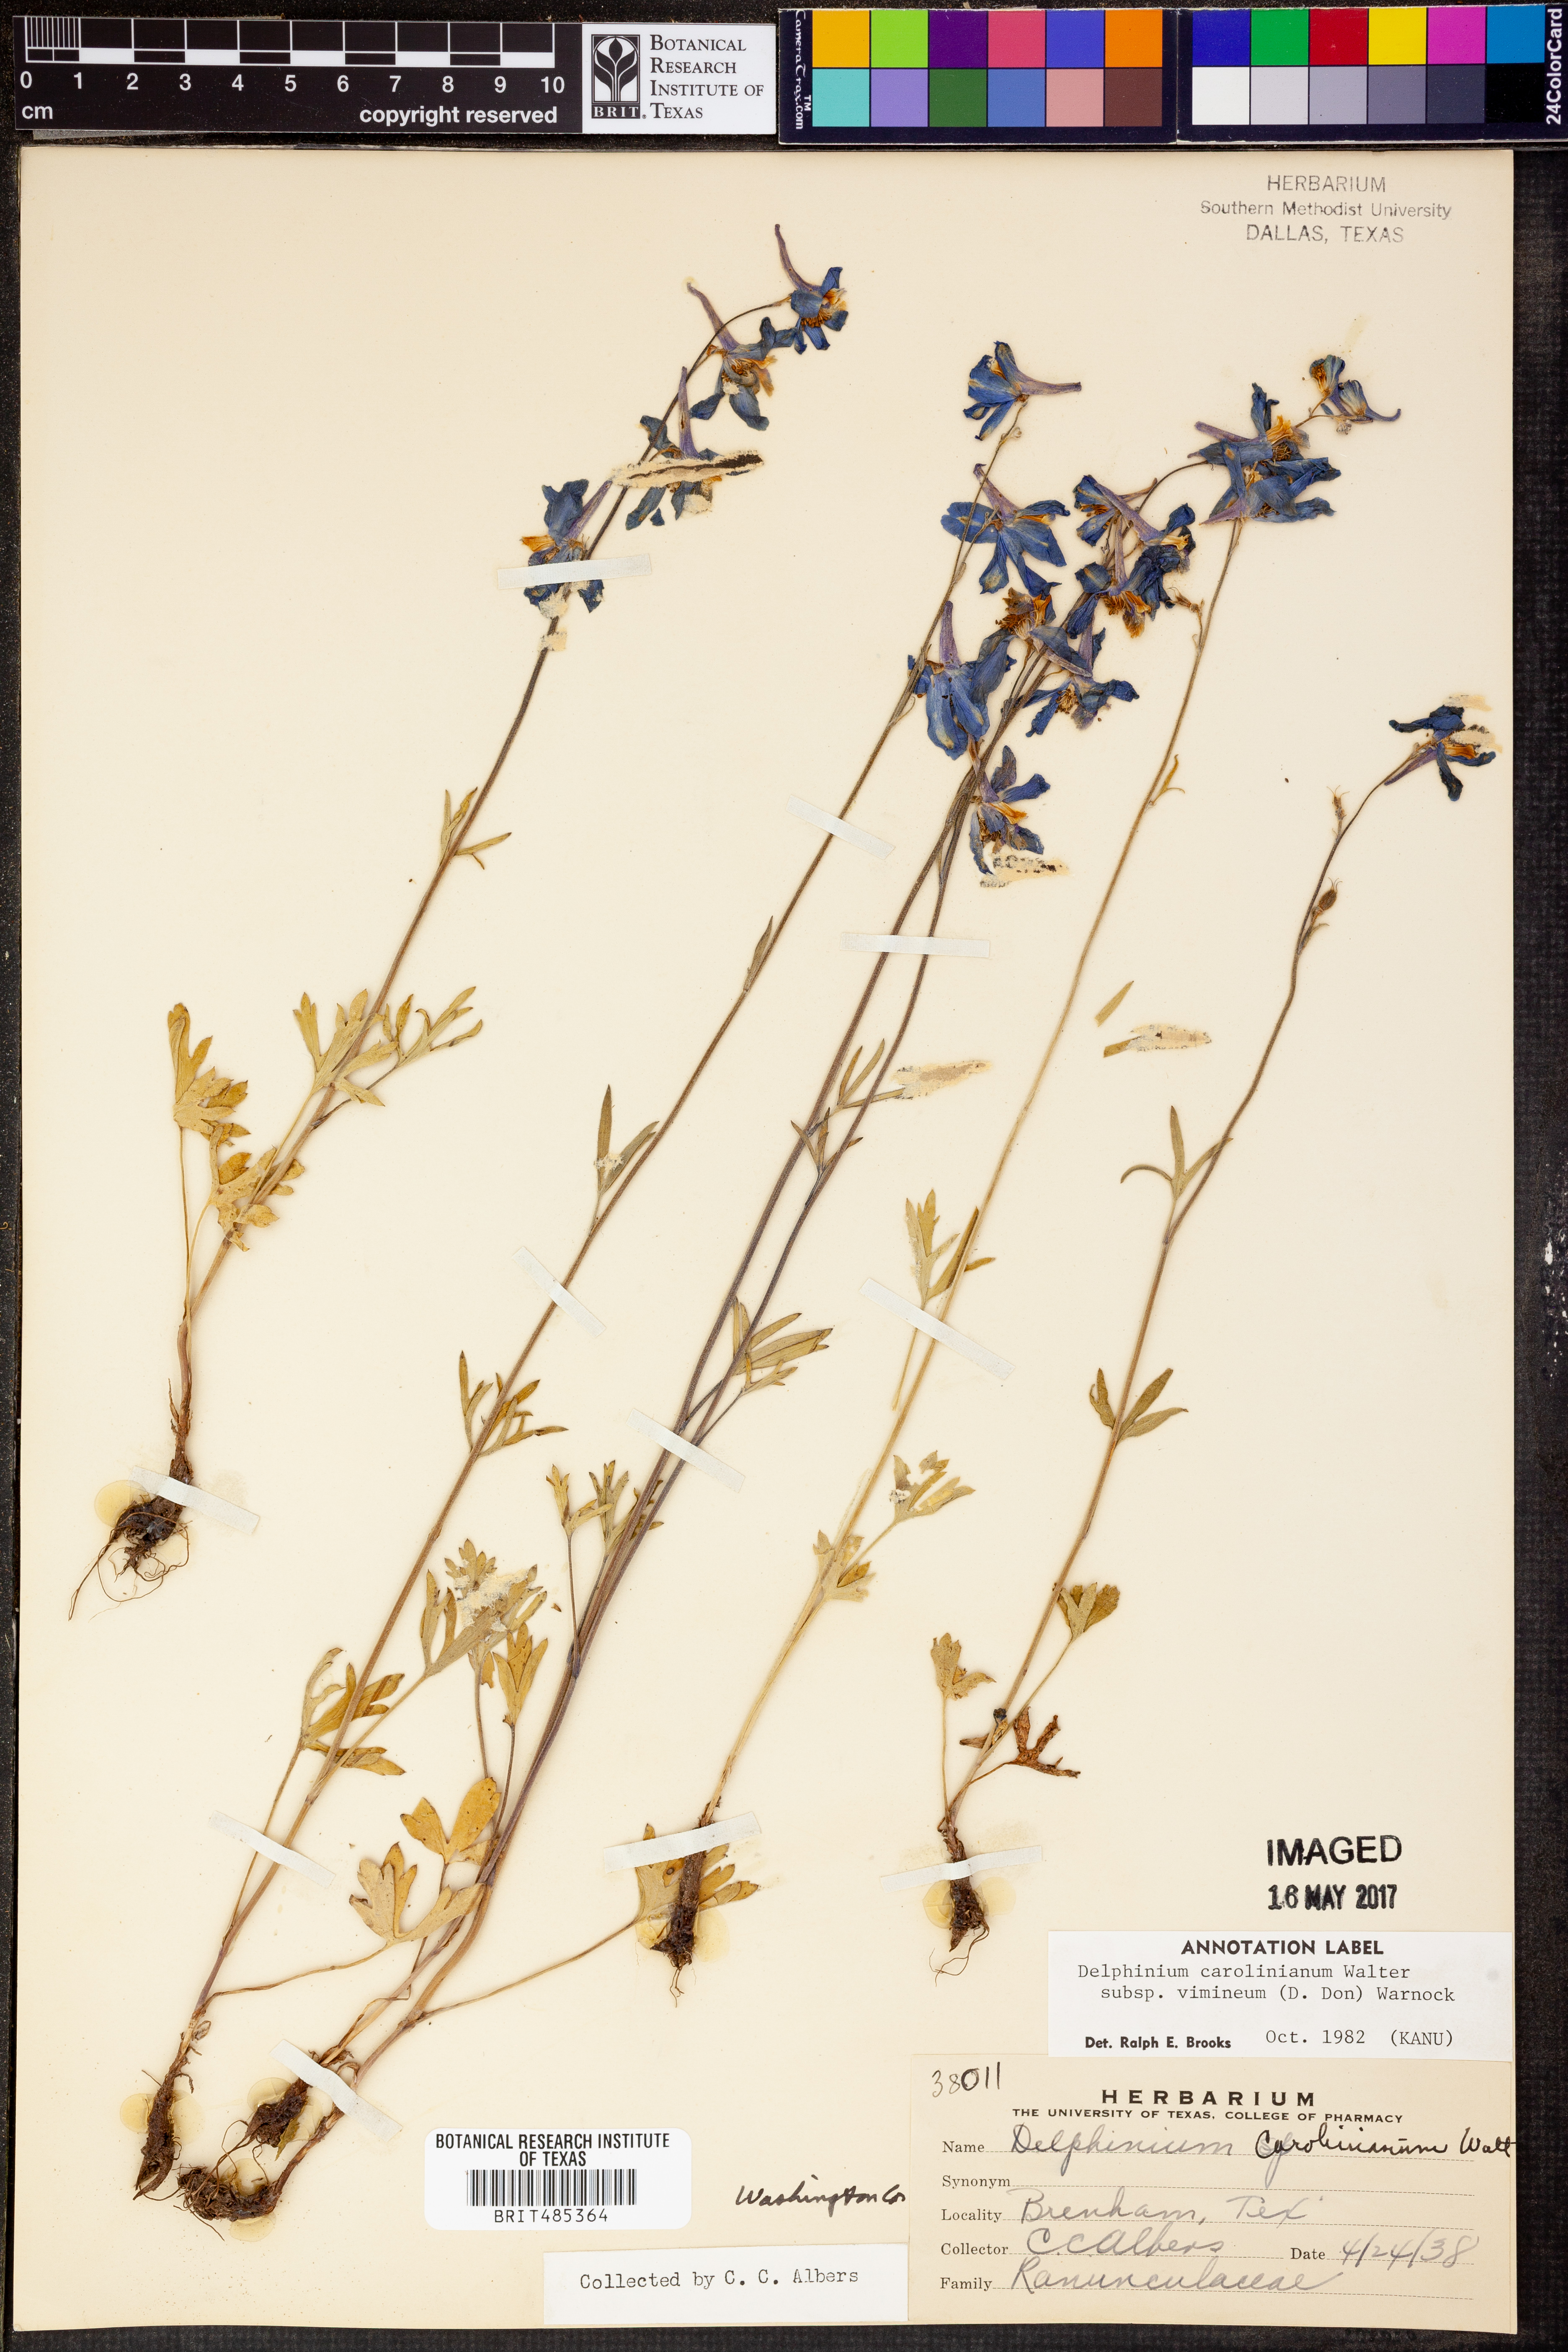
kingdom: Plantae
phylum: Tracheophyta
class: Magnoliopsida
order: Ranunculales
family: Ranunculaceae
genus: Delphinium
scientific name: Delphinium carolinianum
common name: Carolina larkspur
